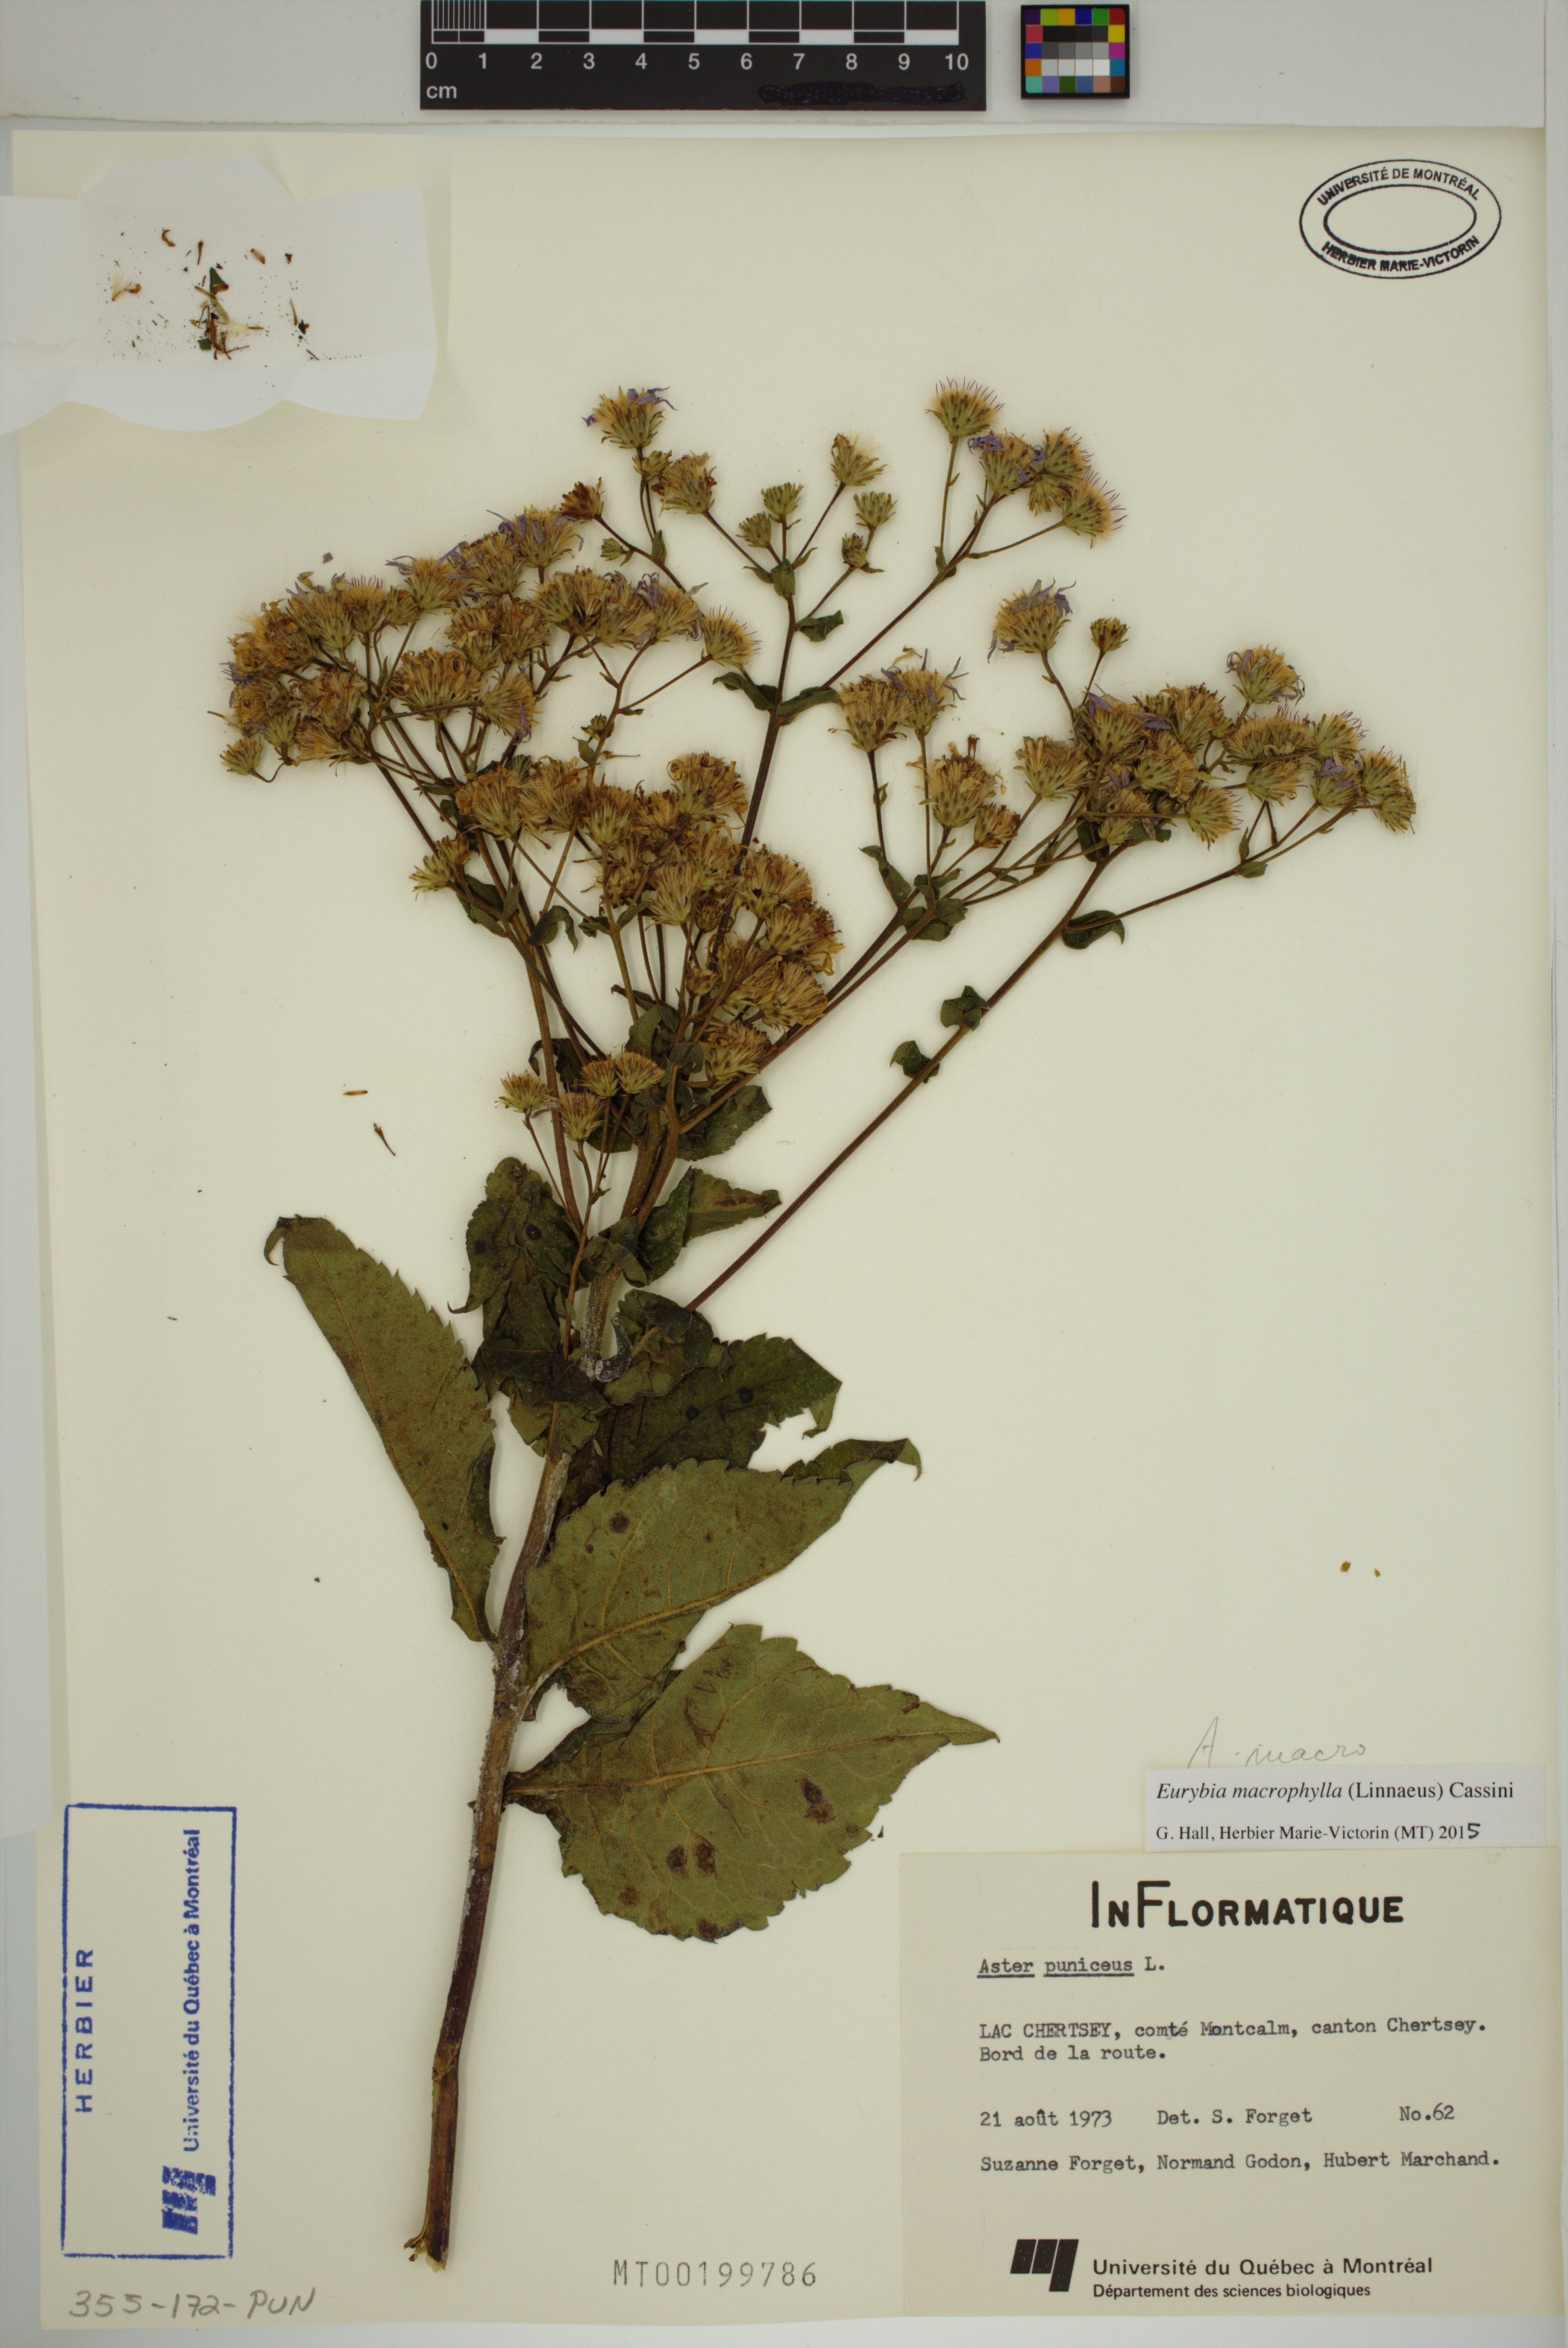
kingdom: Plantae
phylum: Tracheophyta
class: Magnoliopsida
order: Asterales
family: Asteraceae
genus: Eurybia
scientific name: Eurybia macrophylla
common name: Big-leaved aster
